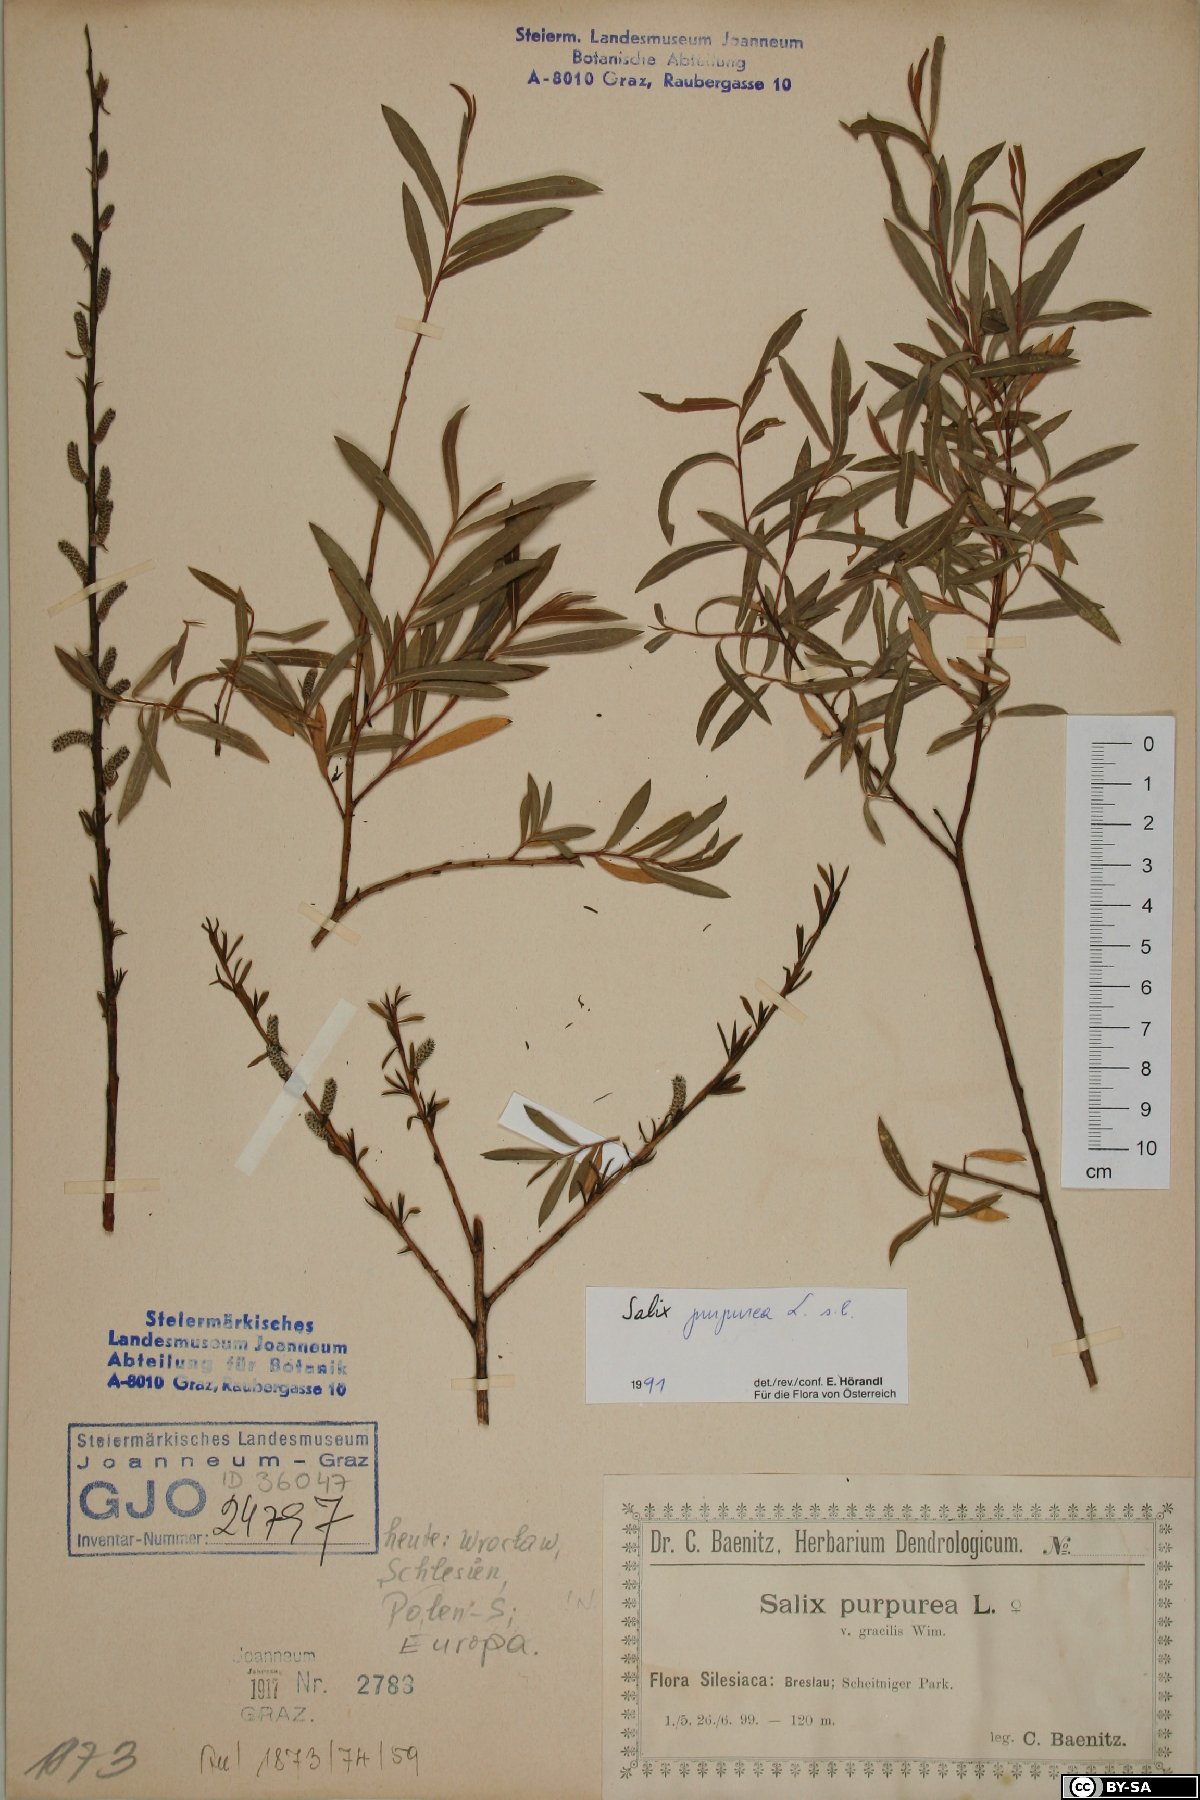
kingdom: Plantae
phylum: Tracheophyta
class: Magnoliopsida
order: Malpighiales
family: Salicaceae
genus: Salix
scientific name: Salix purpurea
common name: Purple willow
